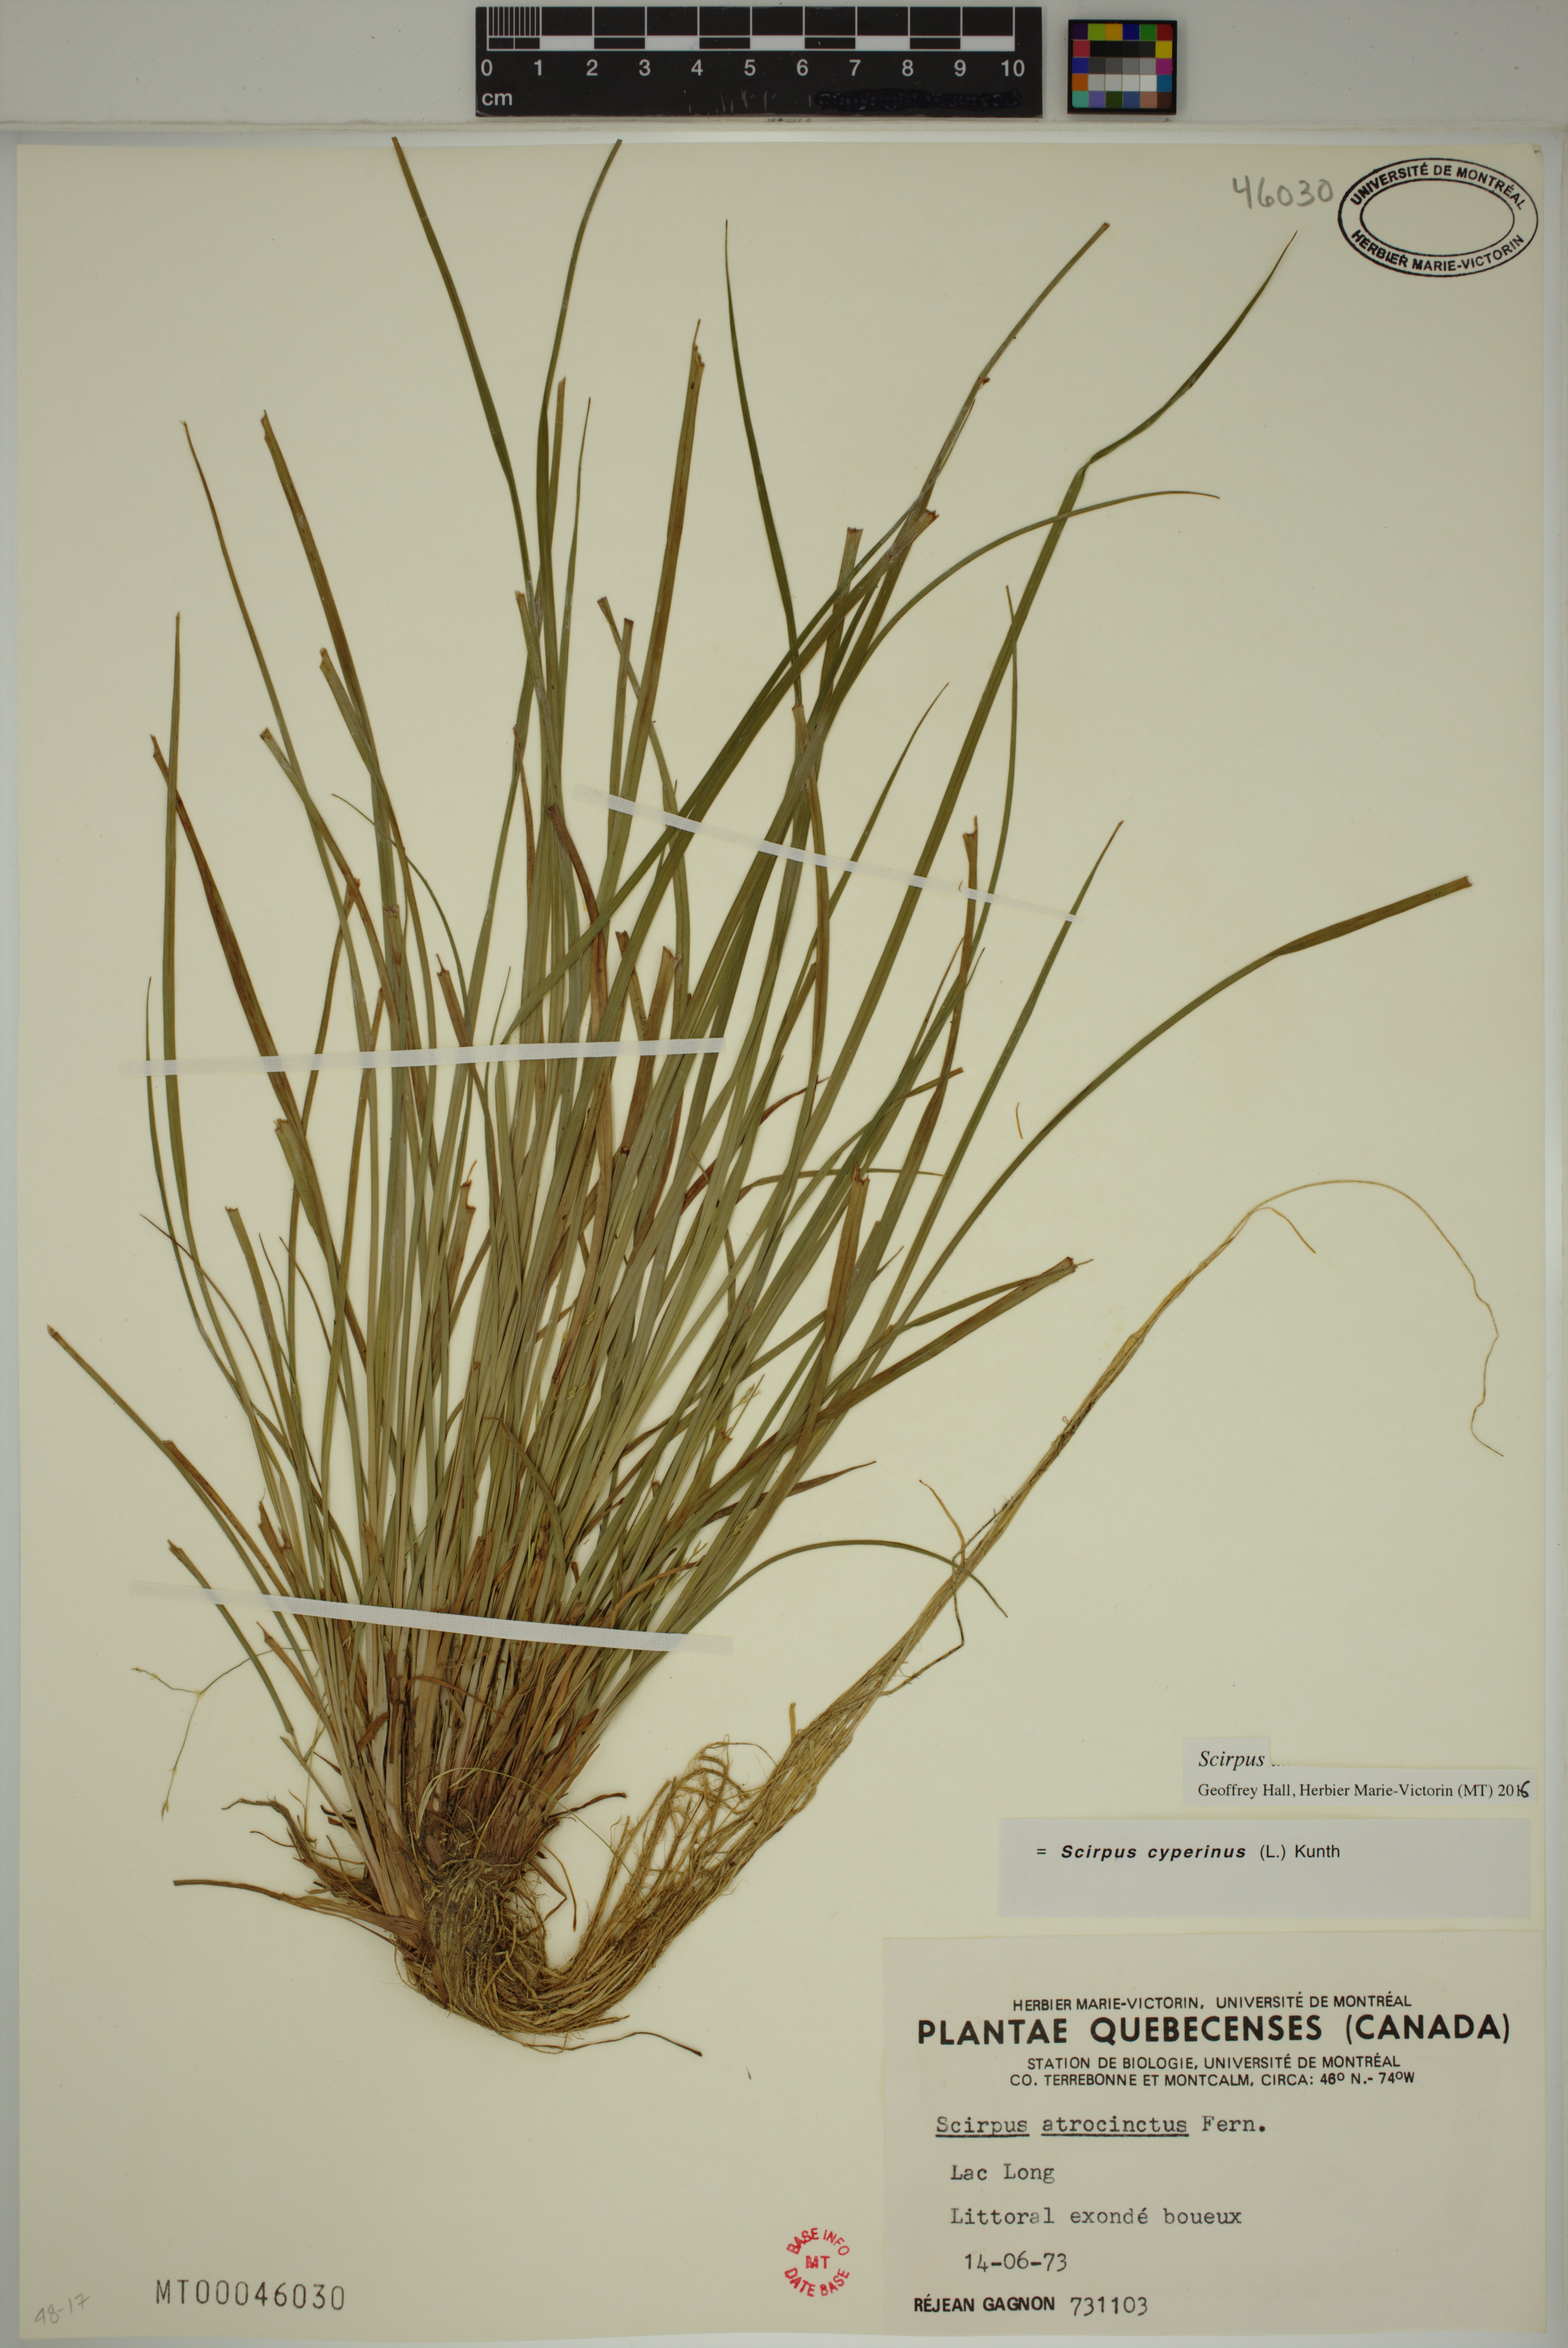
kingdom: Plantae
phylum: Tracheophyta
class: Liliopsida
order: Poales
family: Cyperaceae
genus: Scirpus
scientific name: Scirpus
